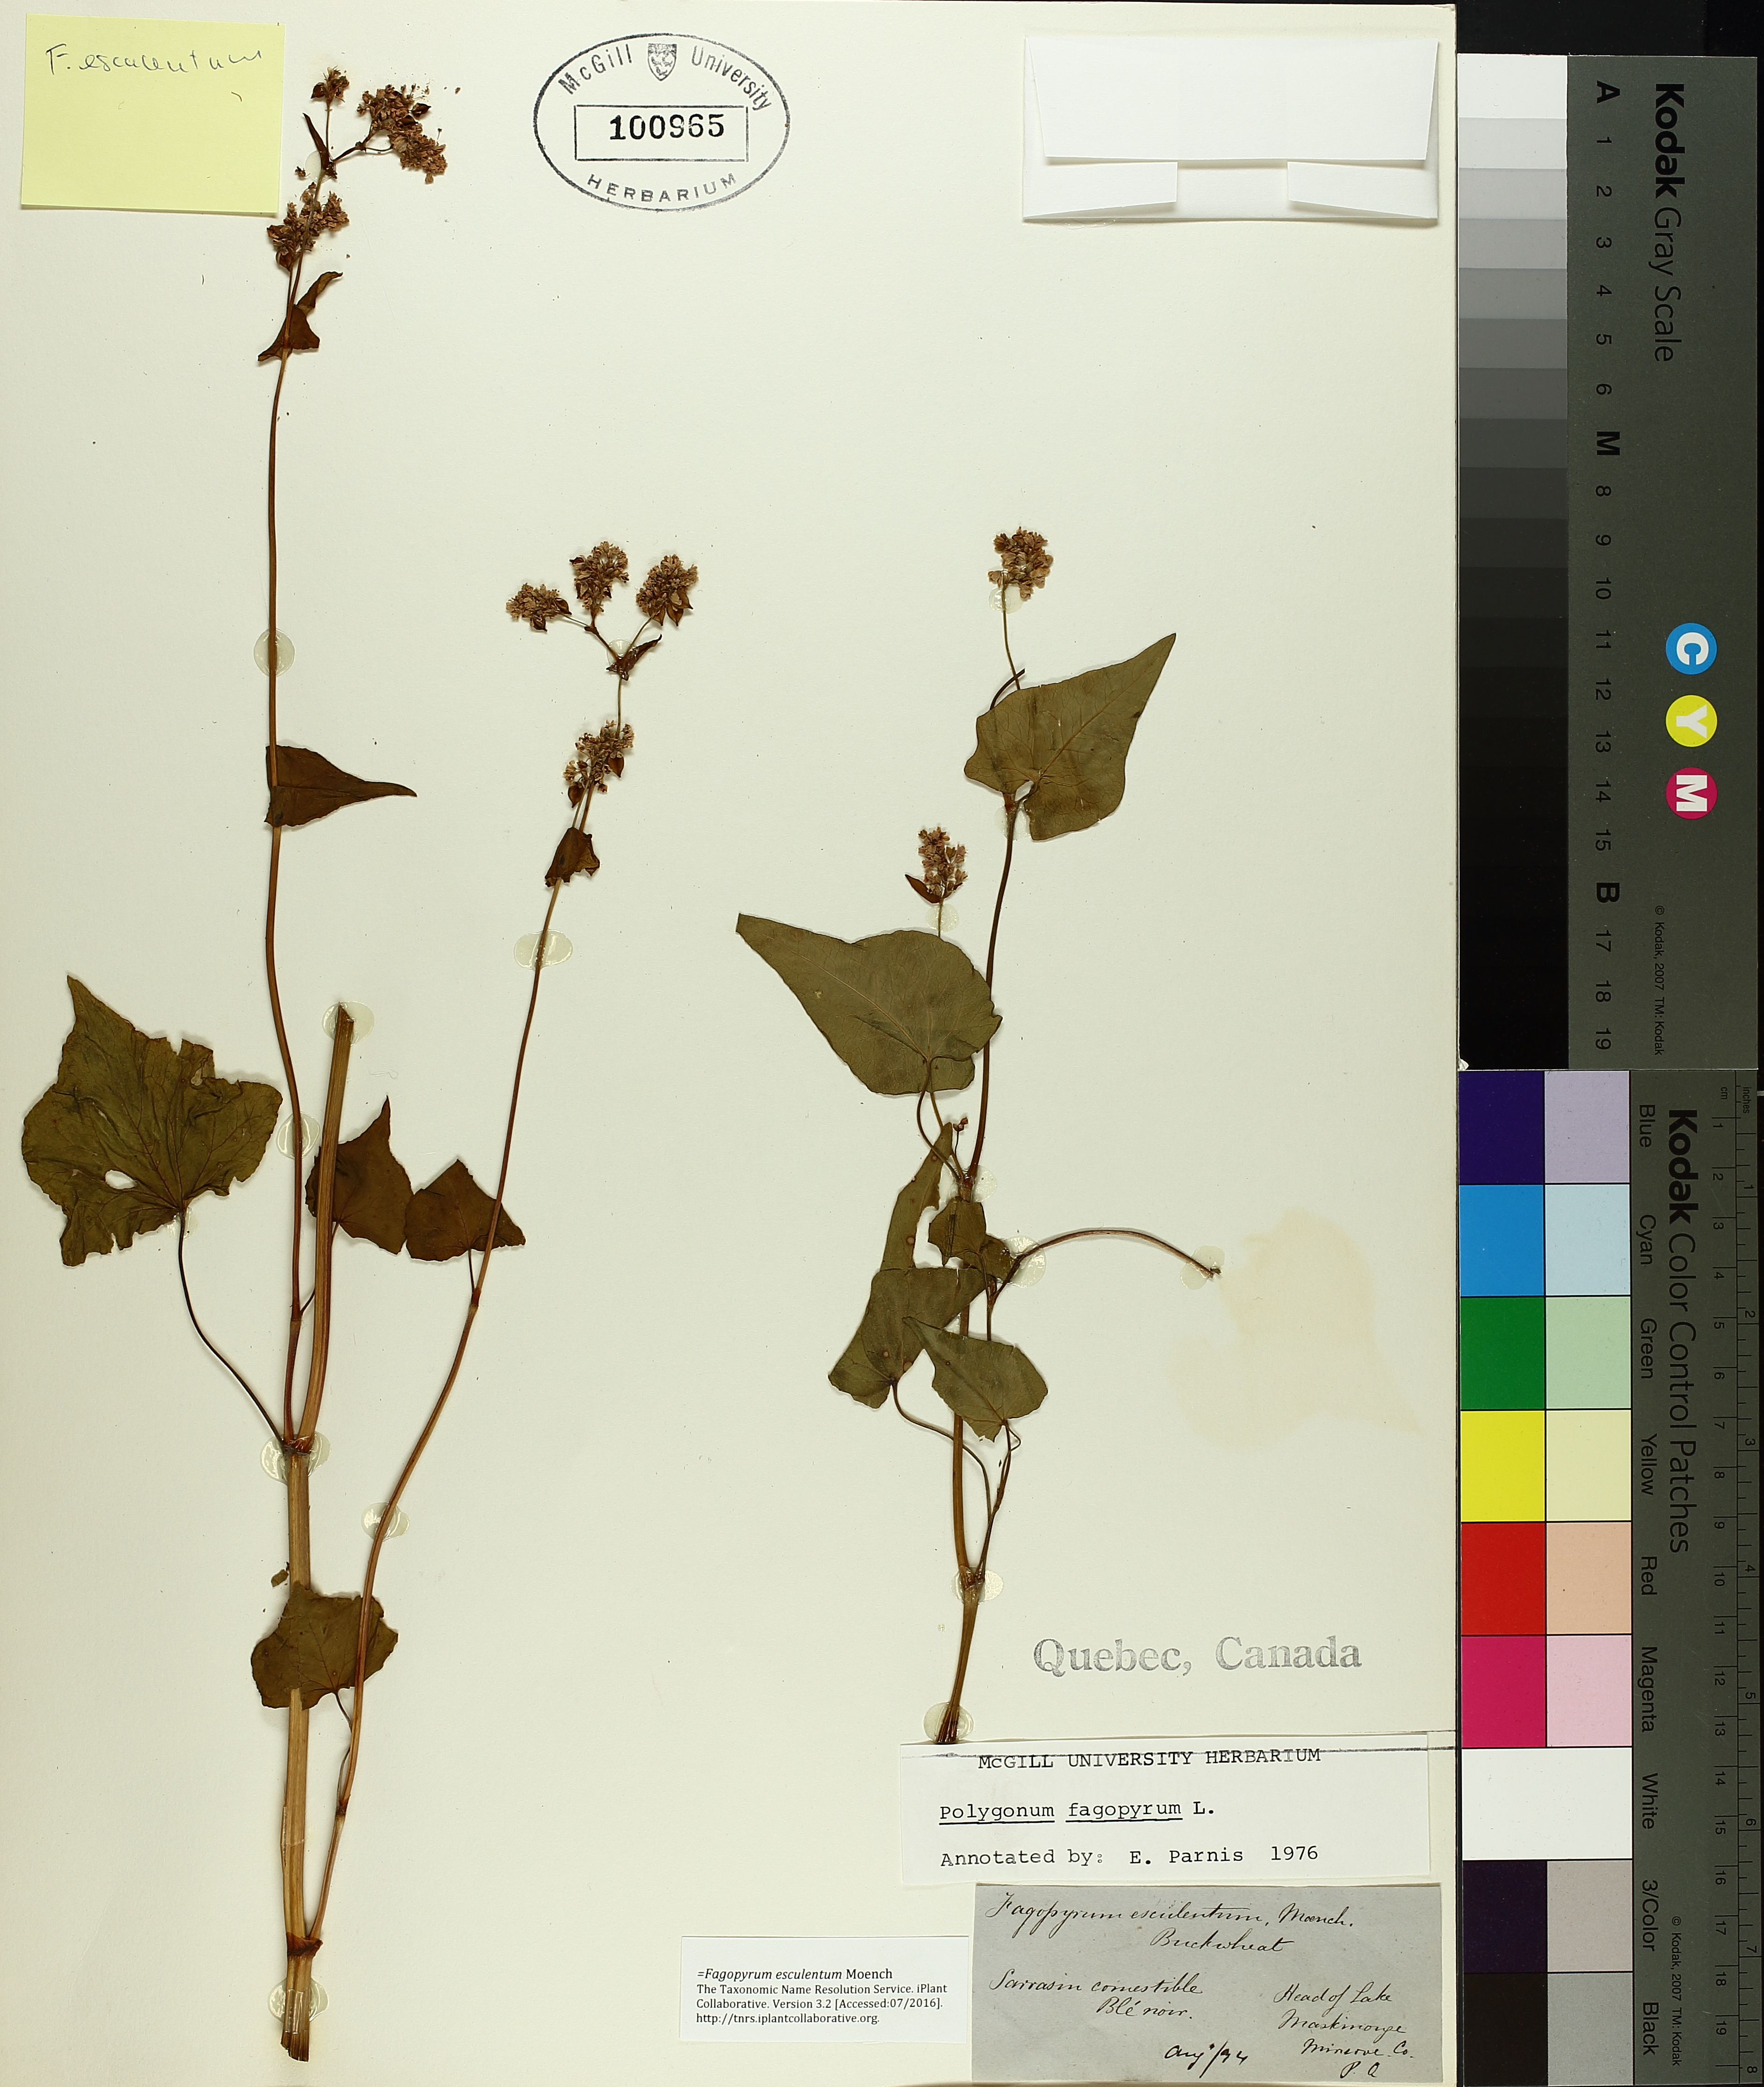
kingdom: Plantae
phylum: Tracheophyta
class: Magnoliopsida
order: Caryophyllales
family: Polygonaceae
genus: Fagopyrum
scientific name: Fagopyrum esculentum
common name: Buckwheat
